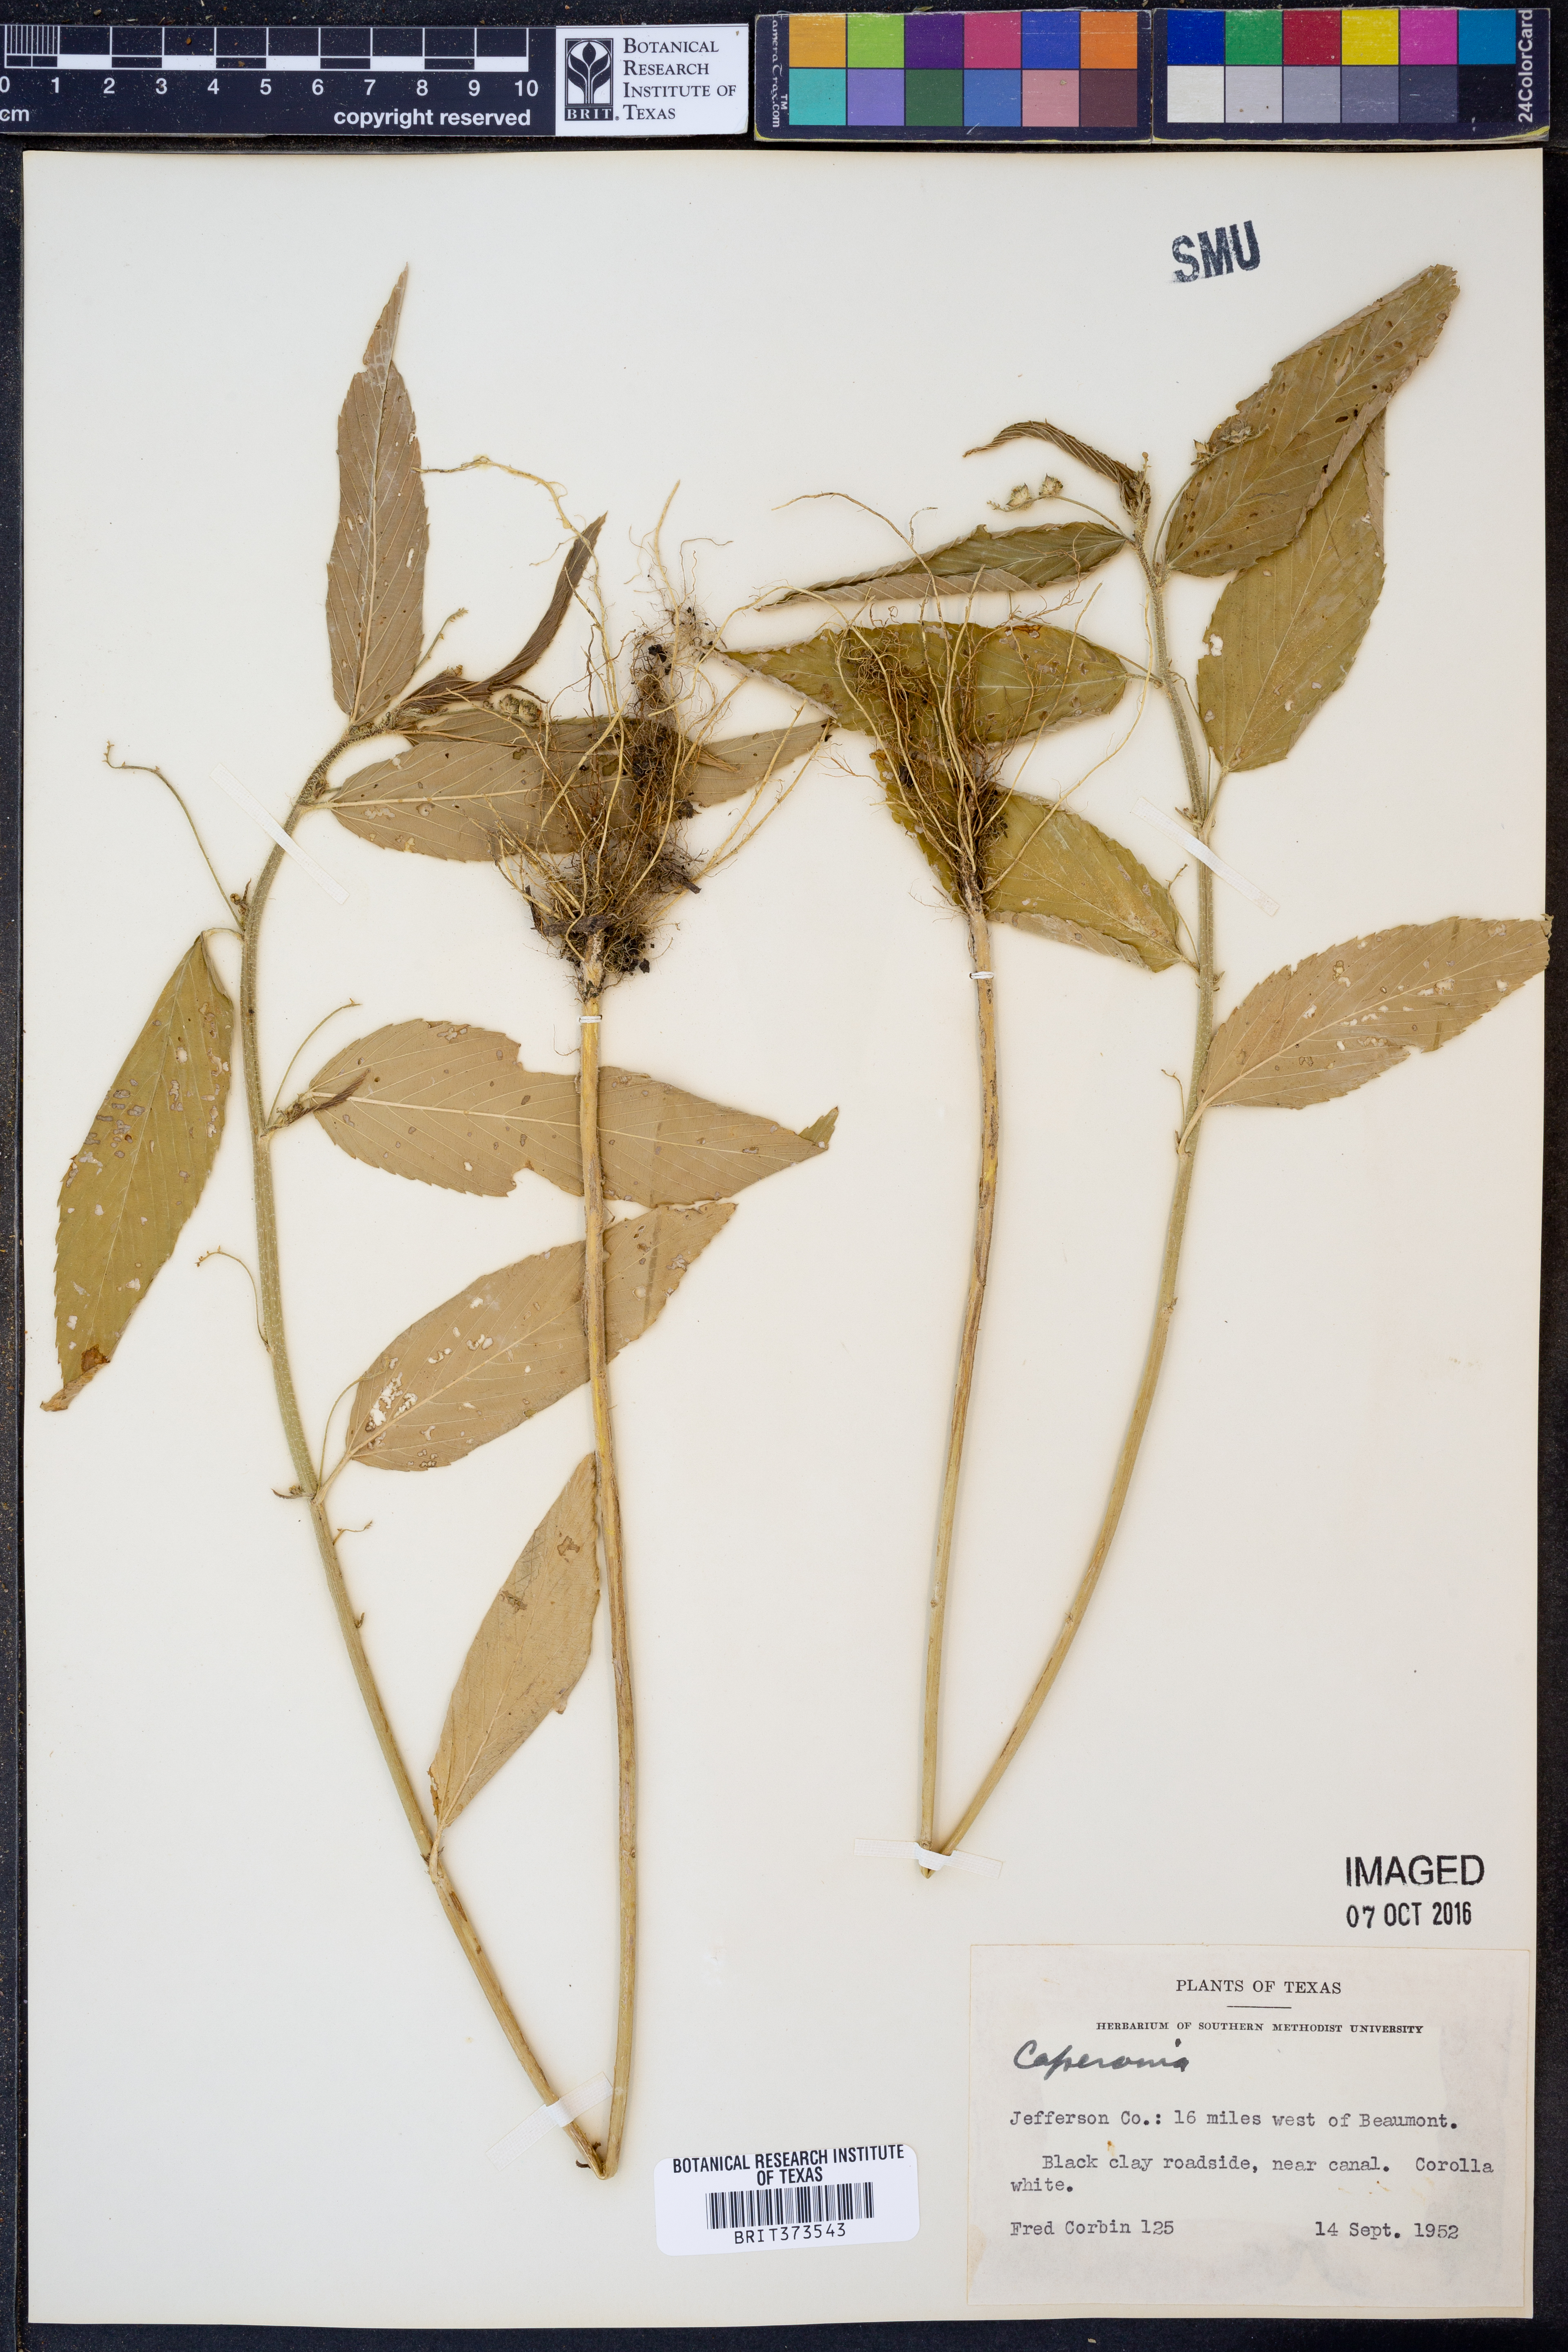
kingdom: Plantae
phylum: Tracheophyta
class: Magnoliopsida
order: Malpighiales
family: Euphorbiaceae
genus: Caperonia
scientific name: Caperonia
